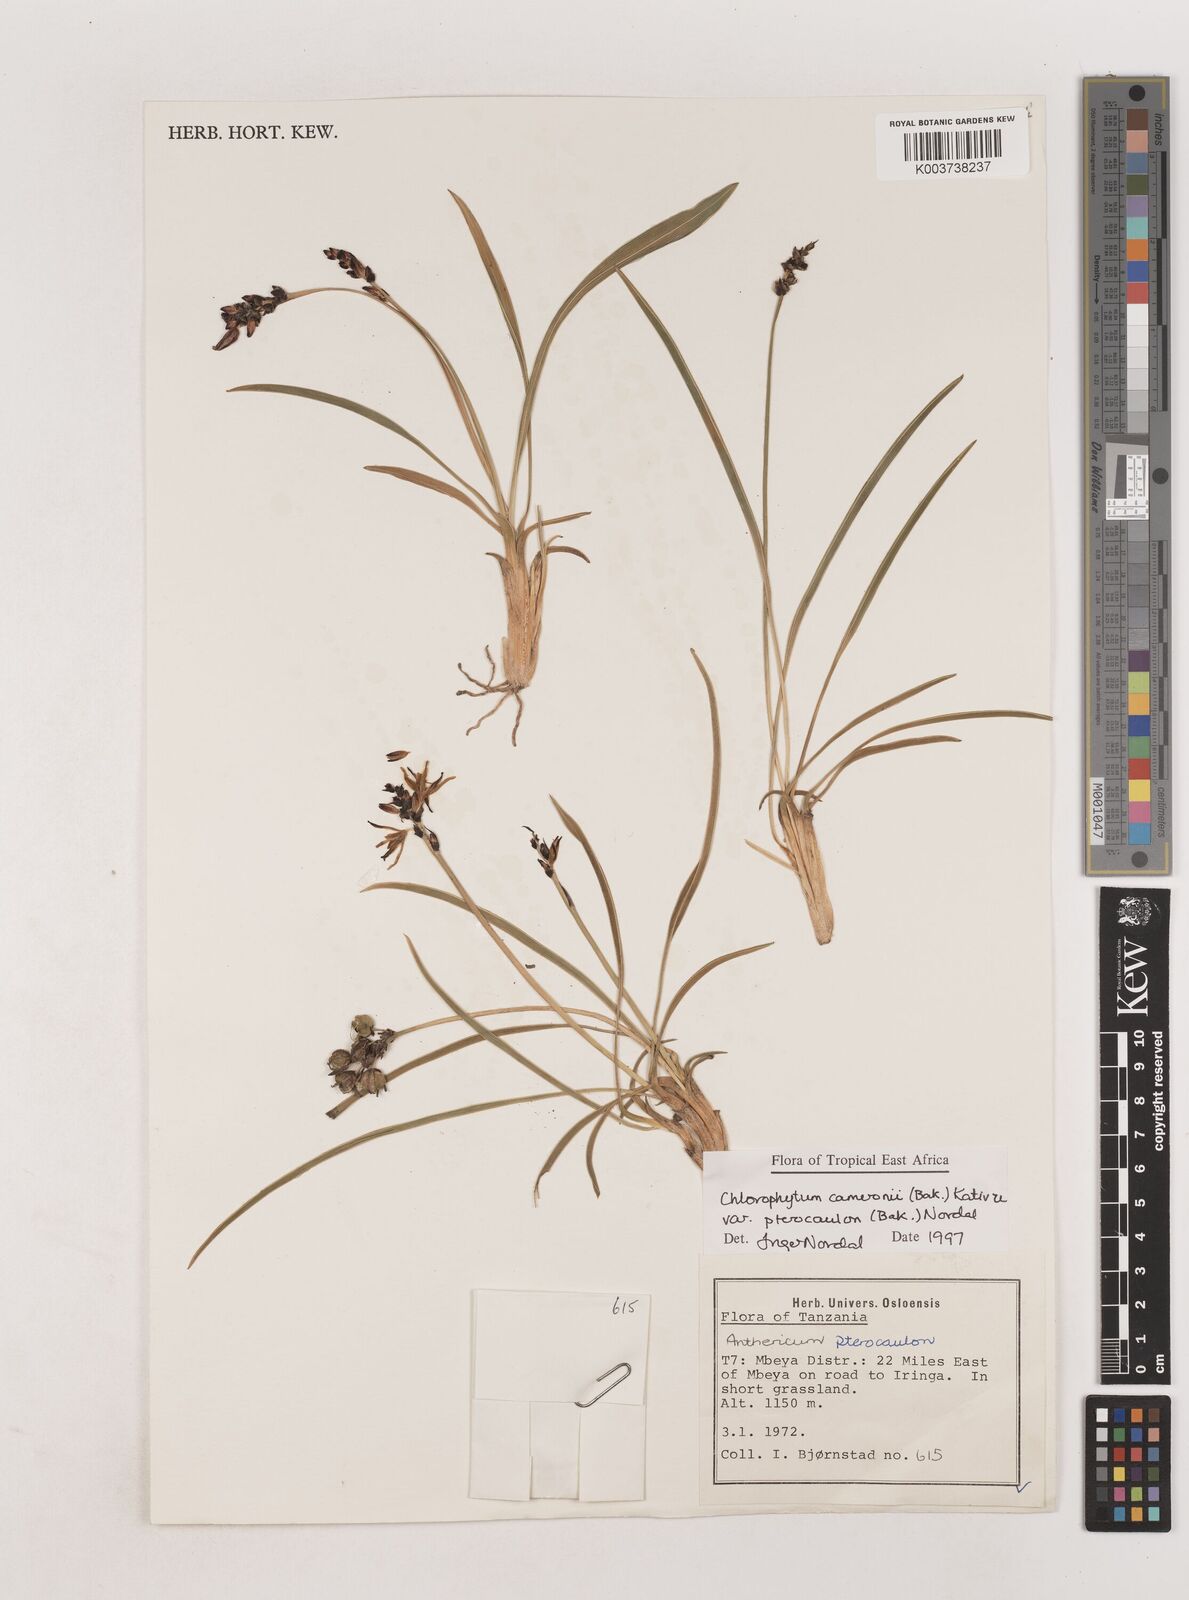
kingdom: Plantae
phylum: Tracheophyta
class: Liliopsida
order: Asparagales
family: Asparagaceae
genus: Chlorophytum
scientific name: Chlorophytum cameronii
